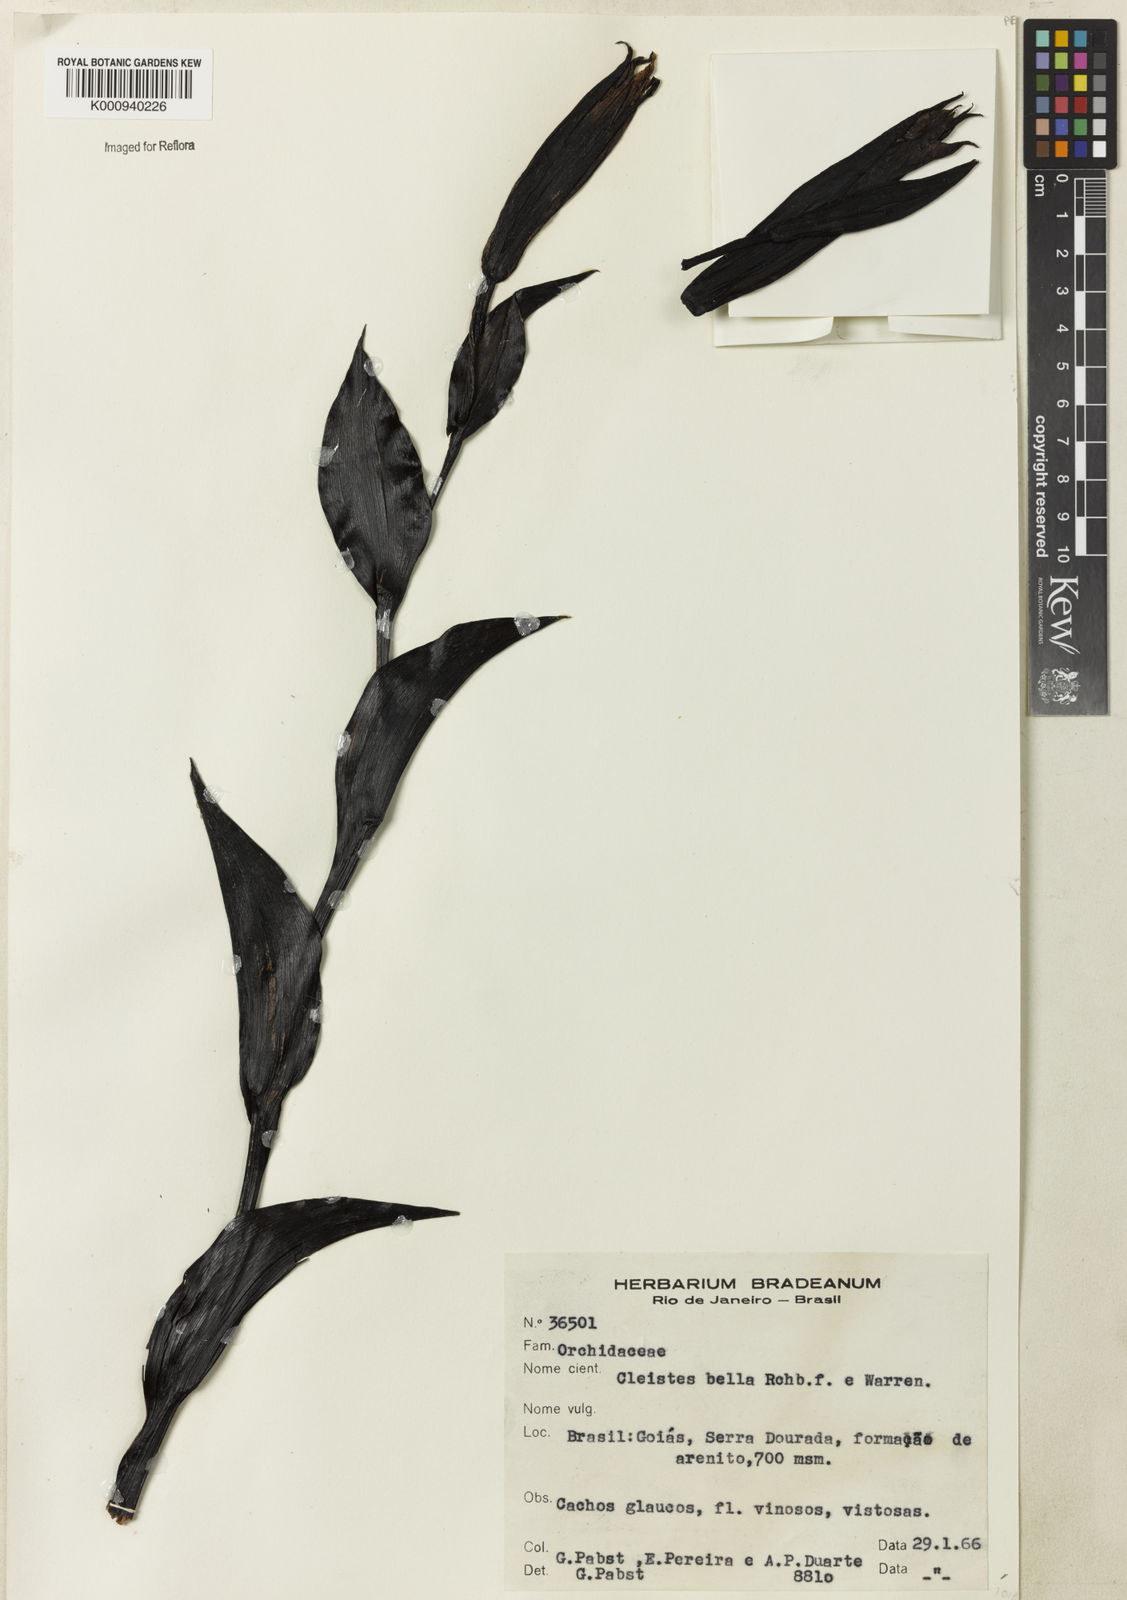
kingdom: Plantae
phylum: Tracheophyta
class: Liliopsida
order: Asparagales
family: Orchidaceae
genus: Cleistes
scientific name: Cleistes
